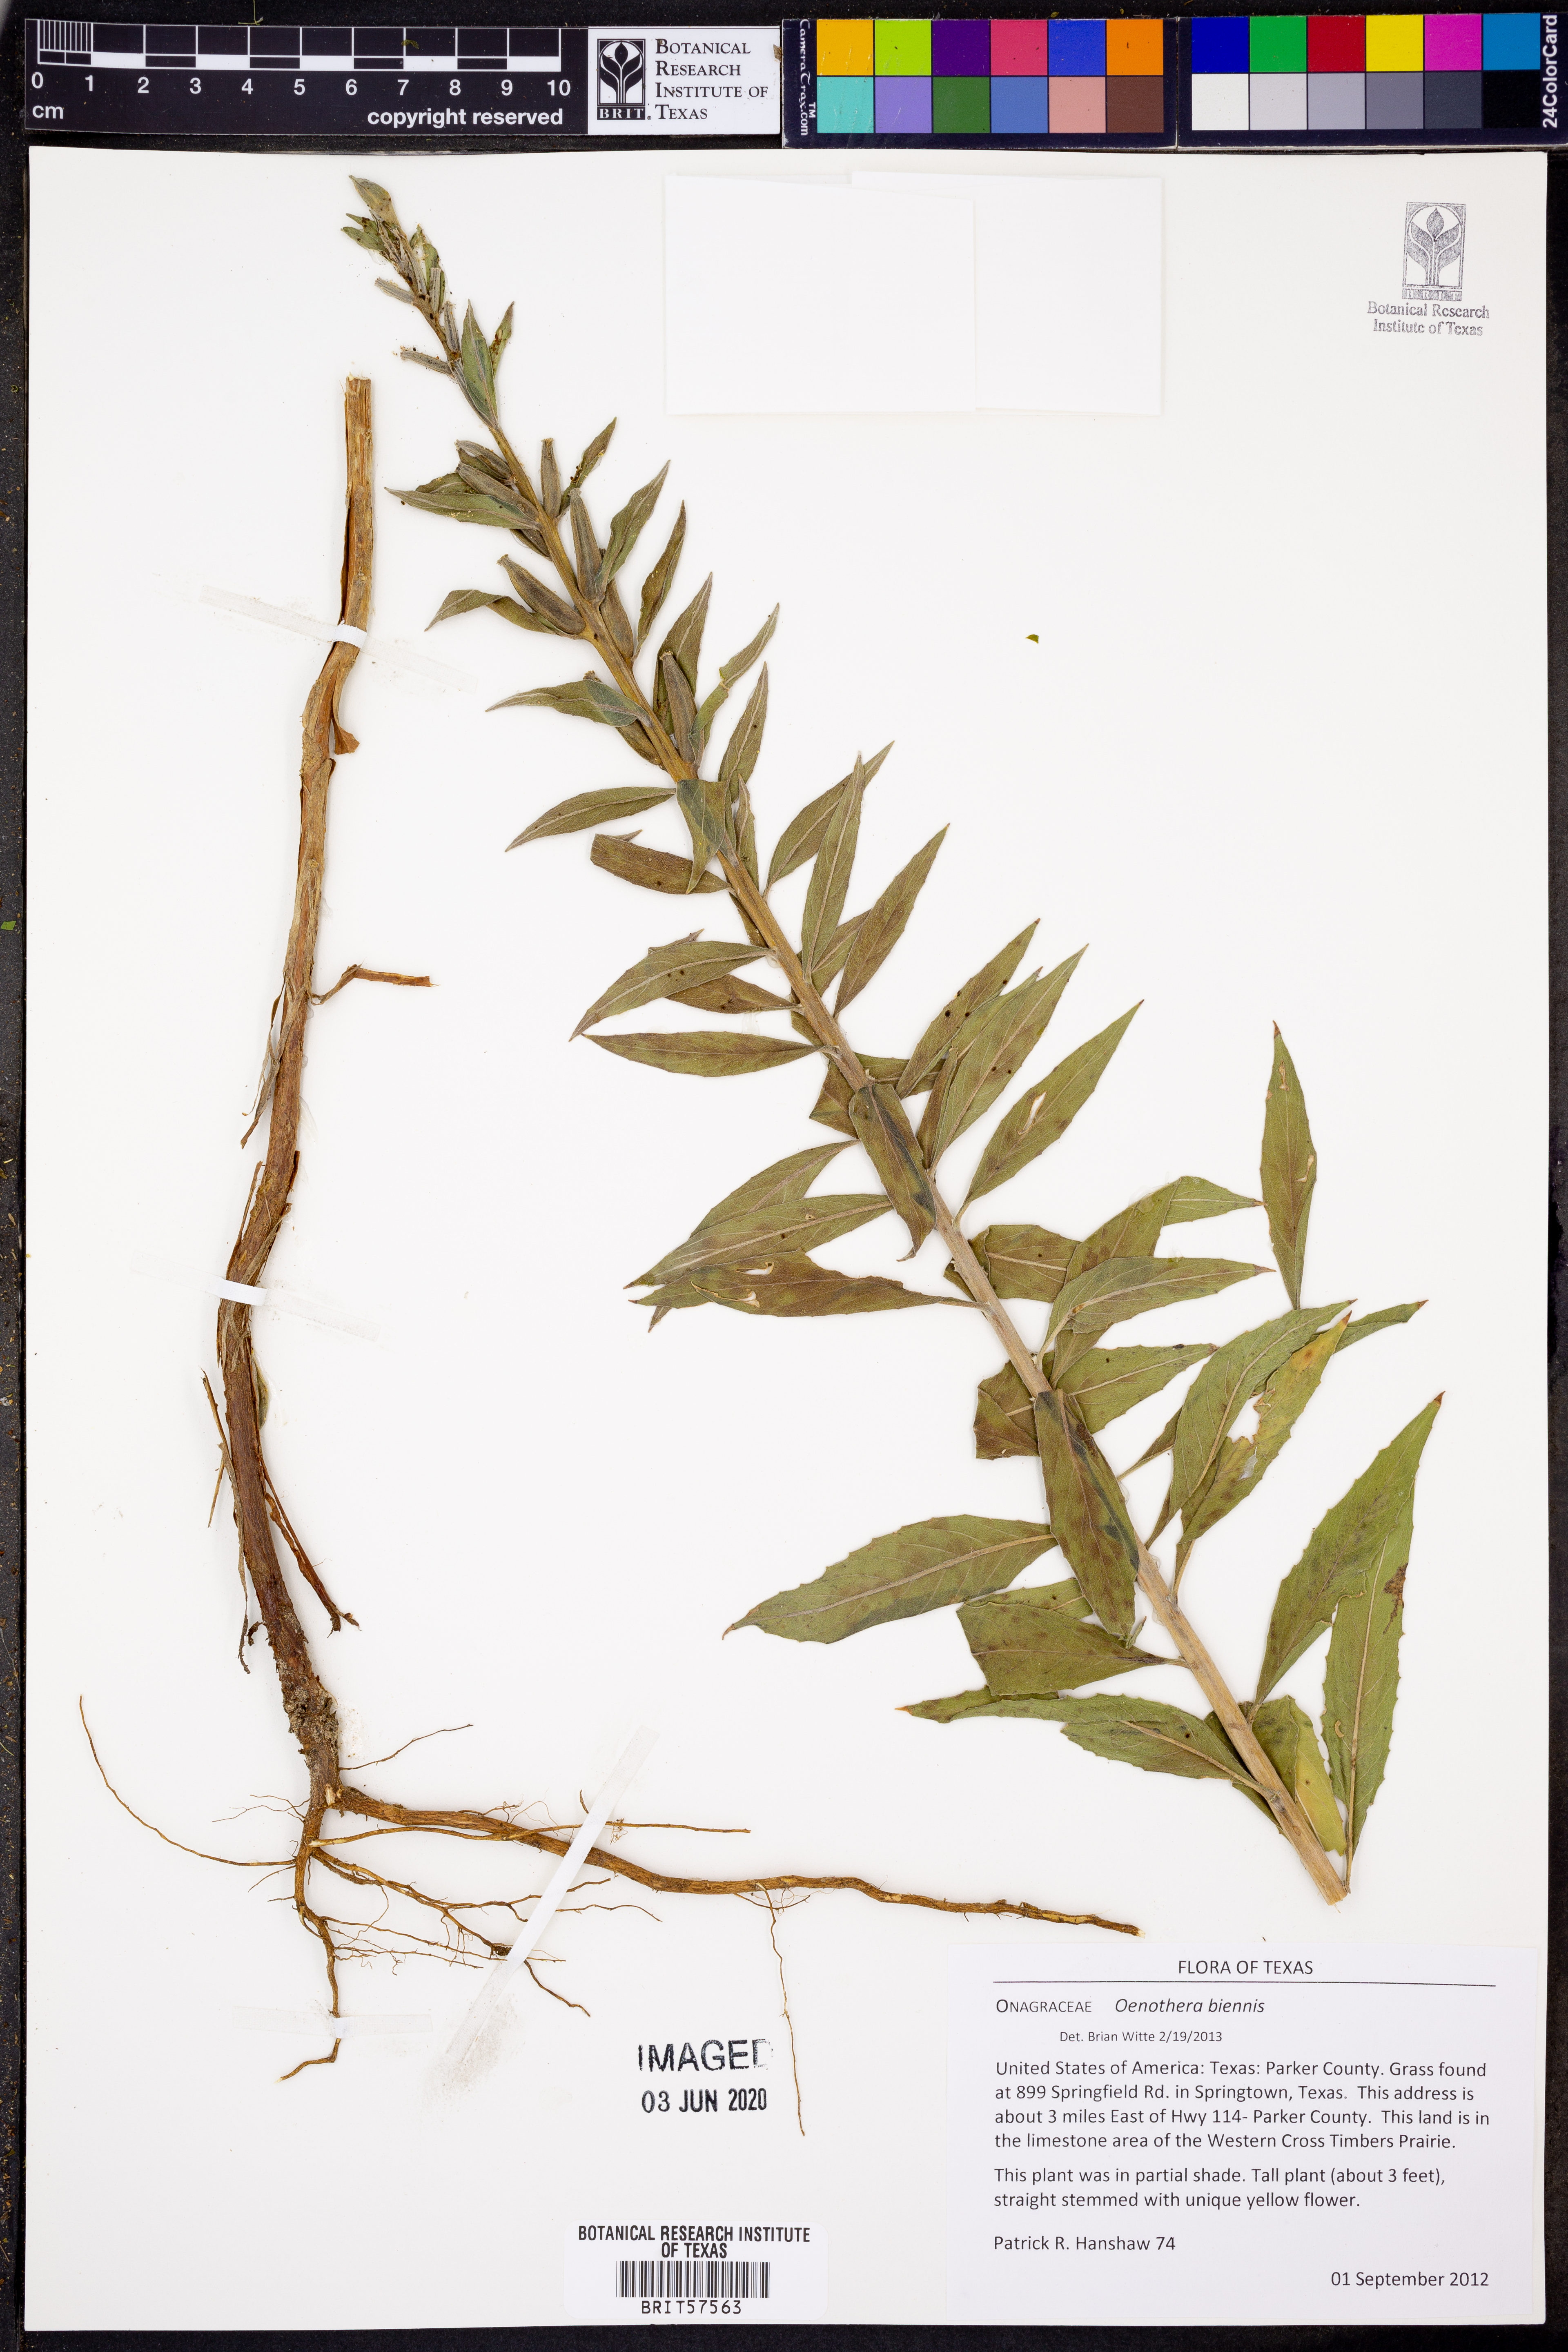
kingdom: Plantae
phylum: Tracheophyta
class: Magnoliopsida
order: Myrtales
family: Onagraceae
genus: Oenothera
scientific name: Oenothera biennis
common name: Common evening-primrose
